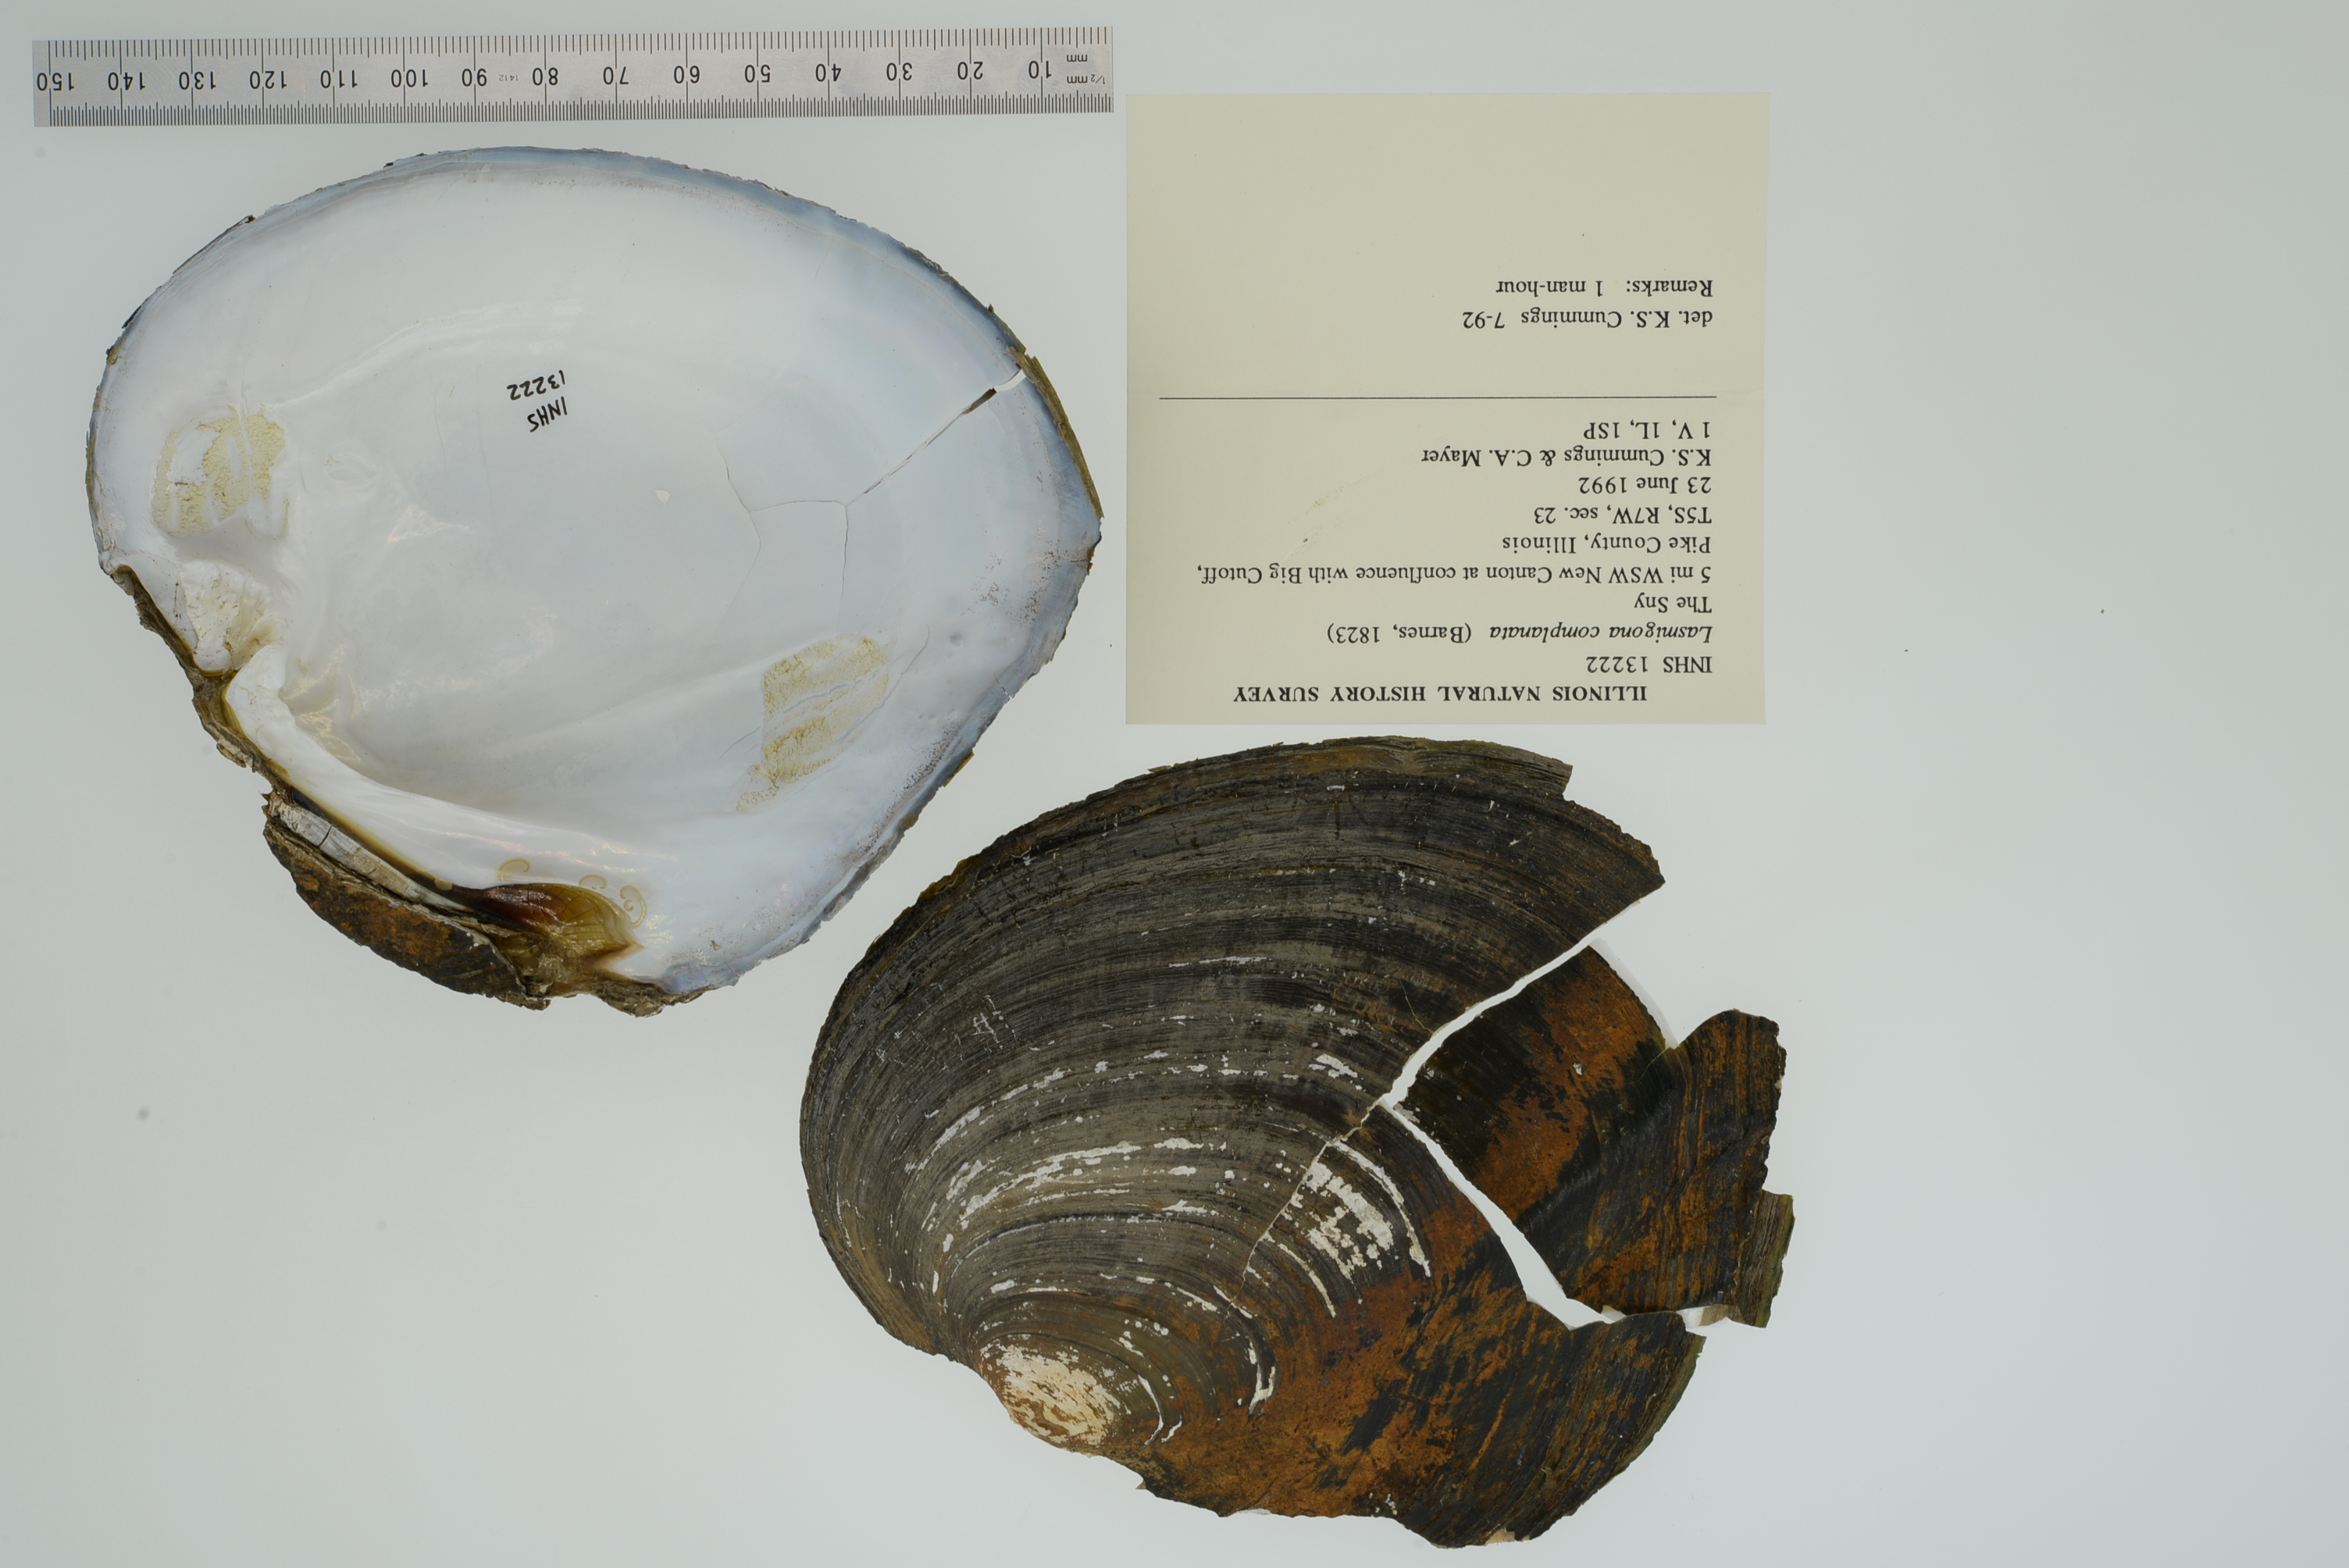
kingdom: Animalia
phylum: Mollusca
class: Bivalvia
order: Unionida
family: Unionidae
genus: Lasmigona
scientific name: Lasmigona complanata
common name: White heelsplitter
